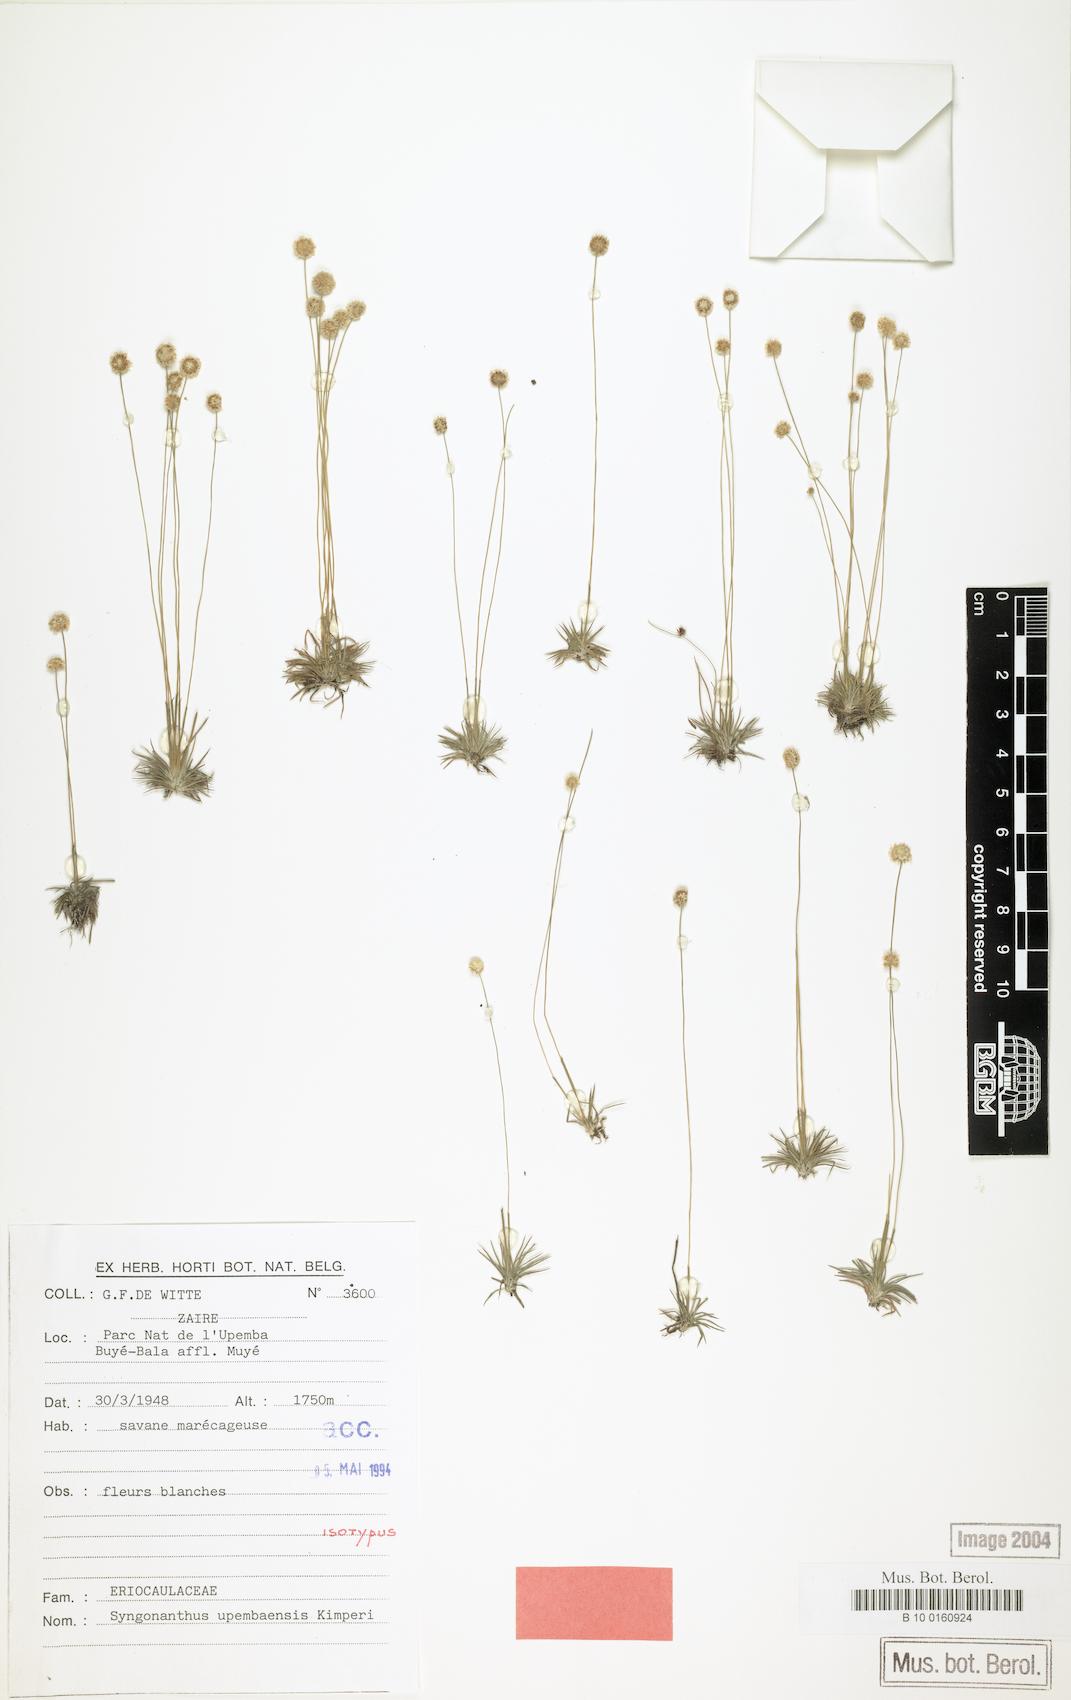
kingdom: Plantae
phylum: Tracheophyta
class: Liliopsida
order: Poales
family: Eriocaulaceae
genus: Syngonanthus
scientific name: Syngonanthus upembaensis
